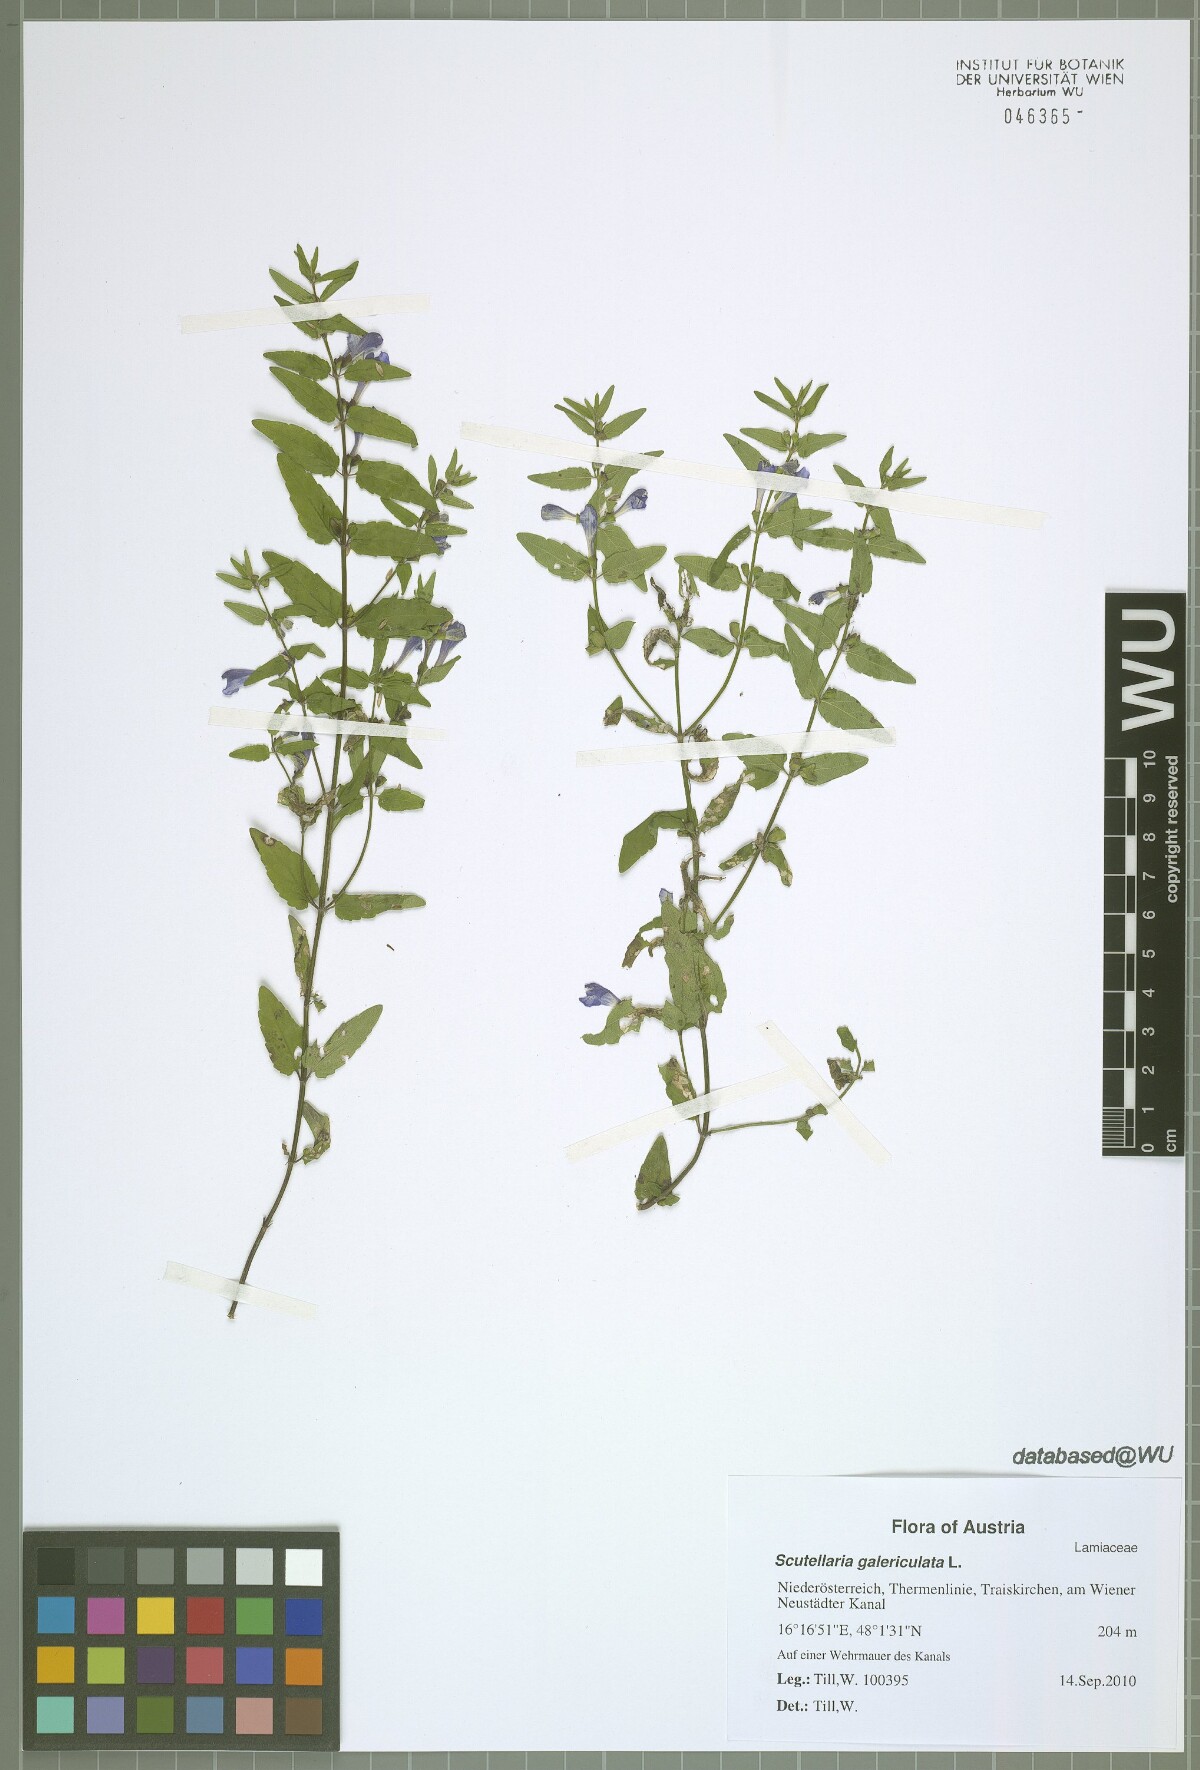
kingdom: Plantae
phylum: Tracheophyta
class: Magnoliopsida
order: Lamiales
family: Lamiaceae
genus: Scutellaria
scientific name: Scutellaria galericulata
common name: Skullcap
